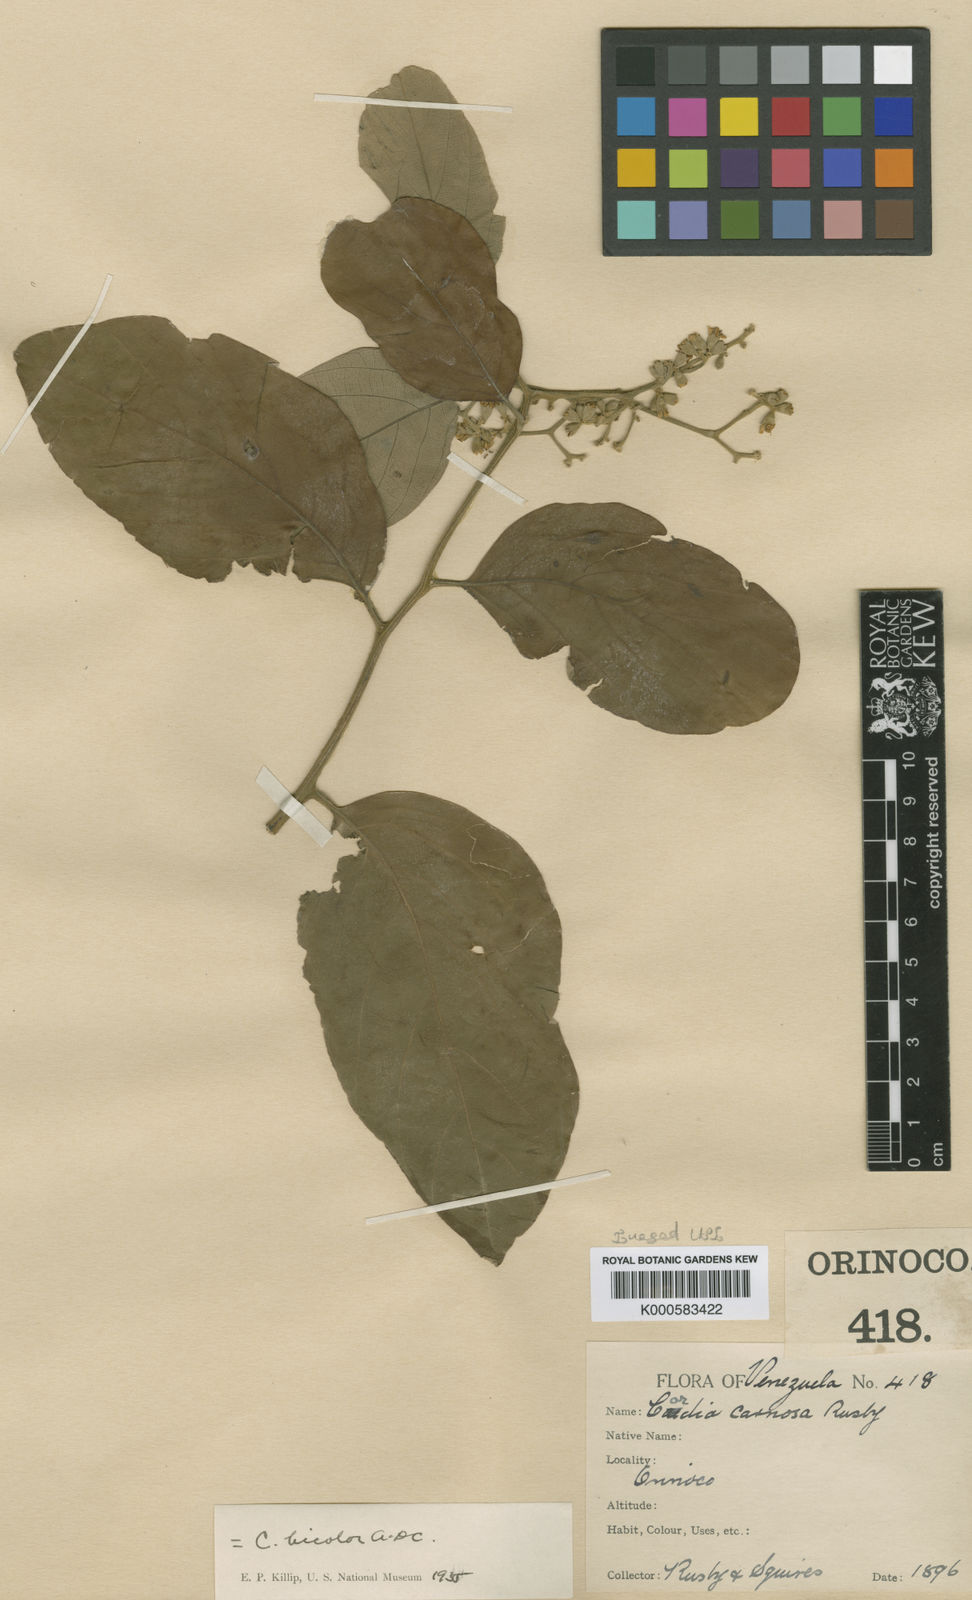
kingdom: Plantae
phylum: Tracheophyta
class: Magnoliopsida
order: Boraginales
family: Cordiaceae
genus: Cordia
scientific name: Cordia bicolor
